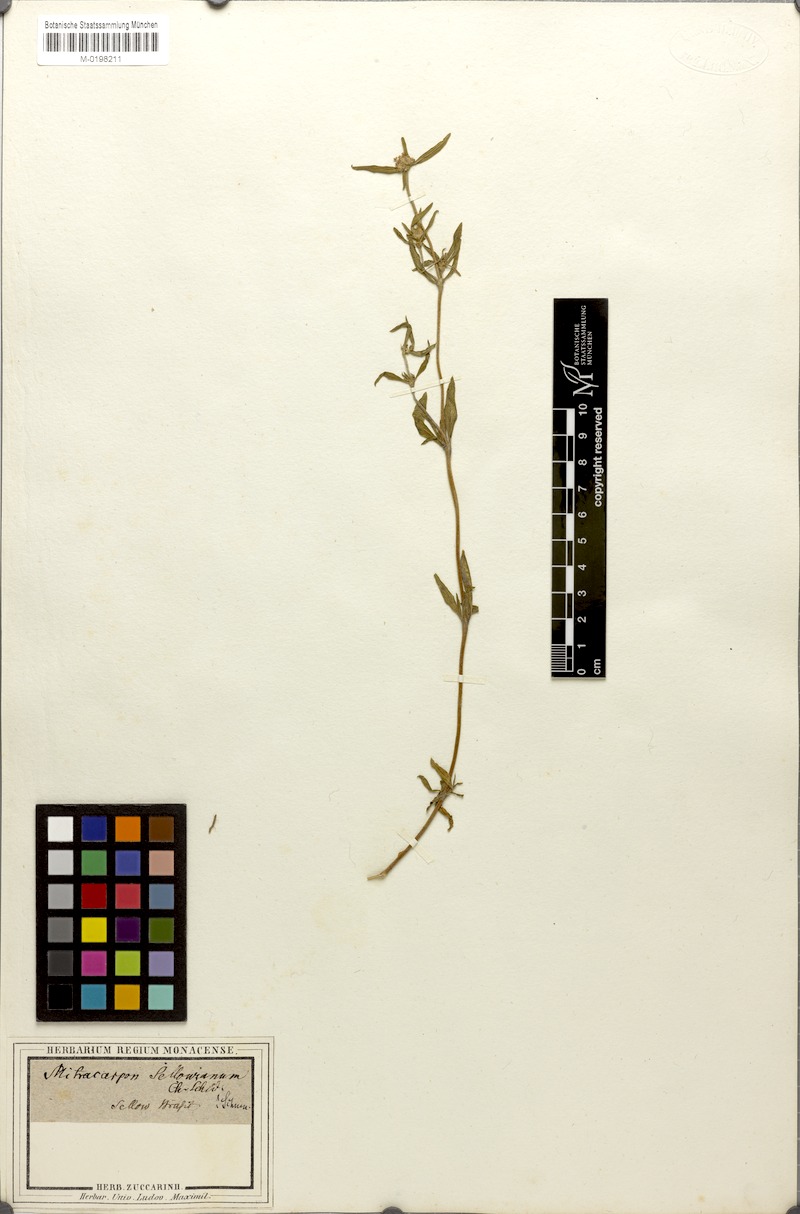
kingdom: Plantae
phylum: Tracheophyta
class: Magnoliopsida
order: Gentianales
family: Rubiaceae
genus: Mitracarpus
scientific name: Mitracarpus megapotamicus
